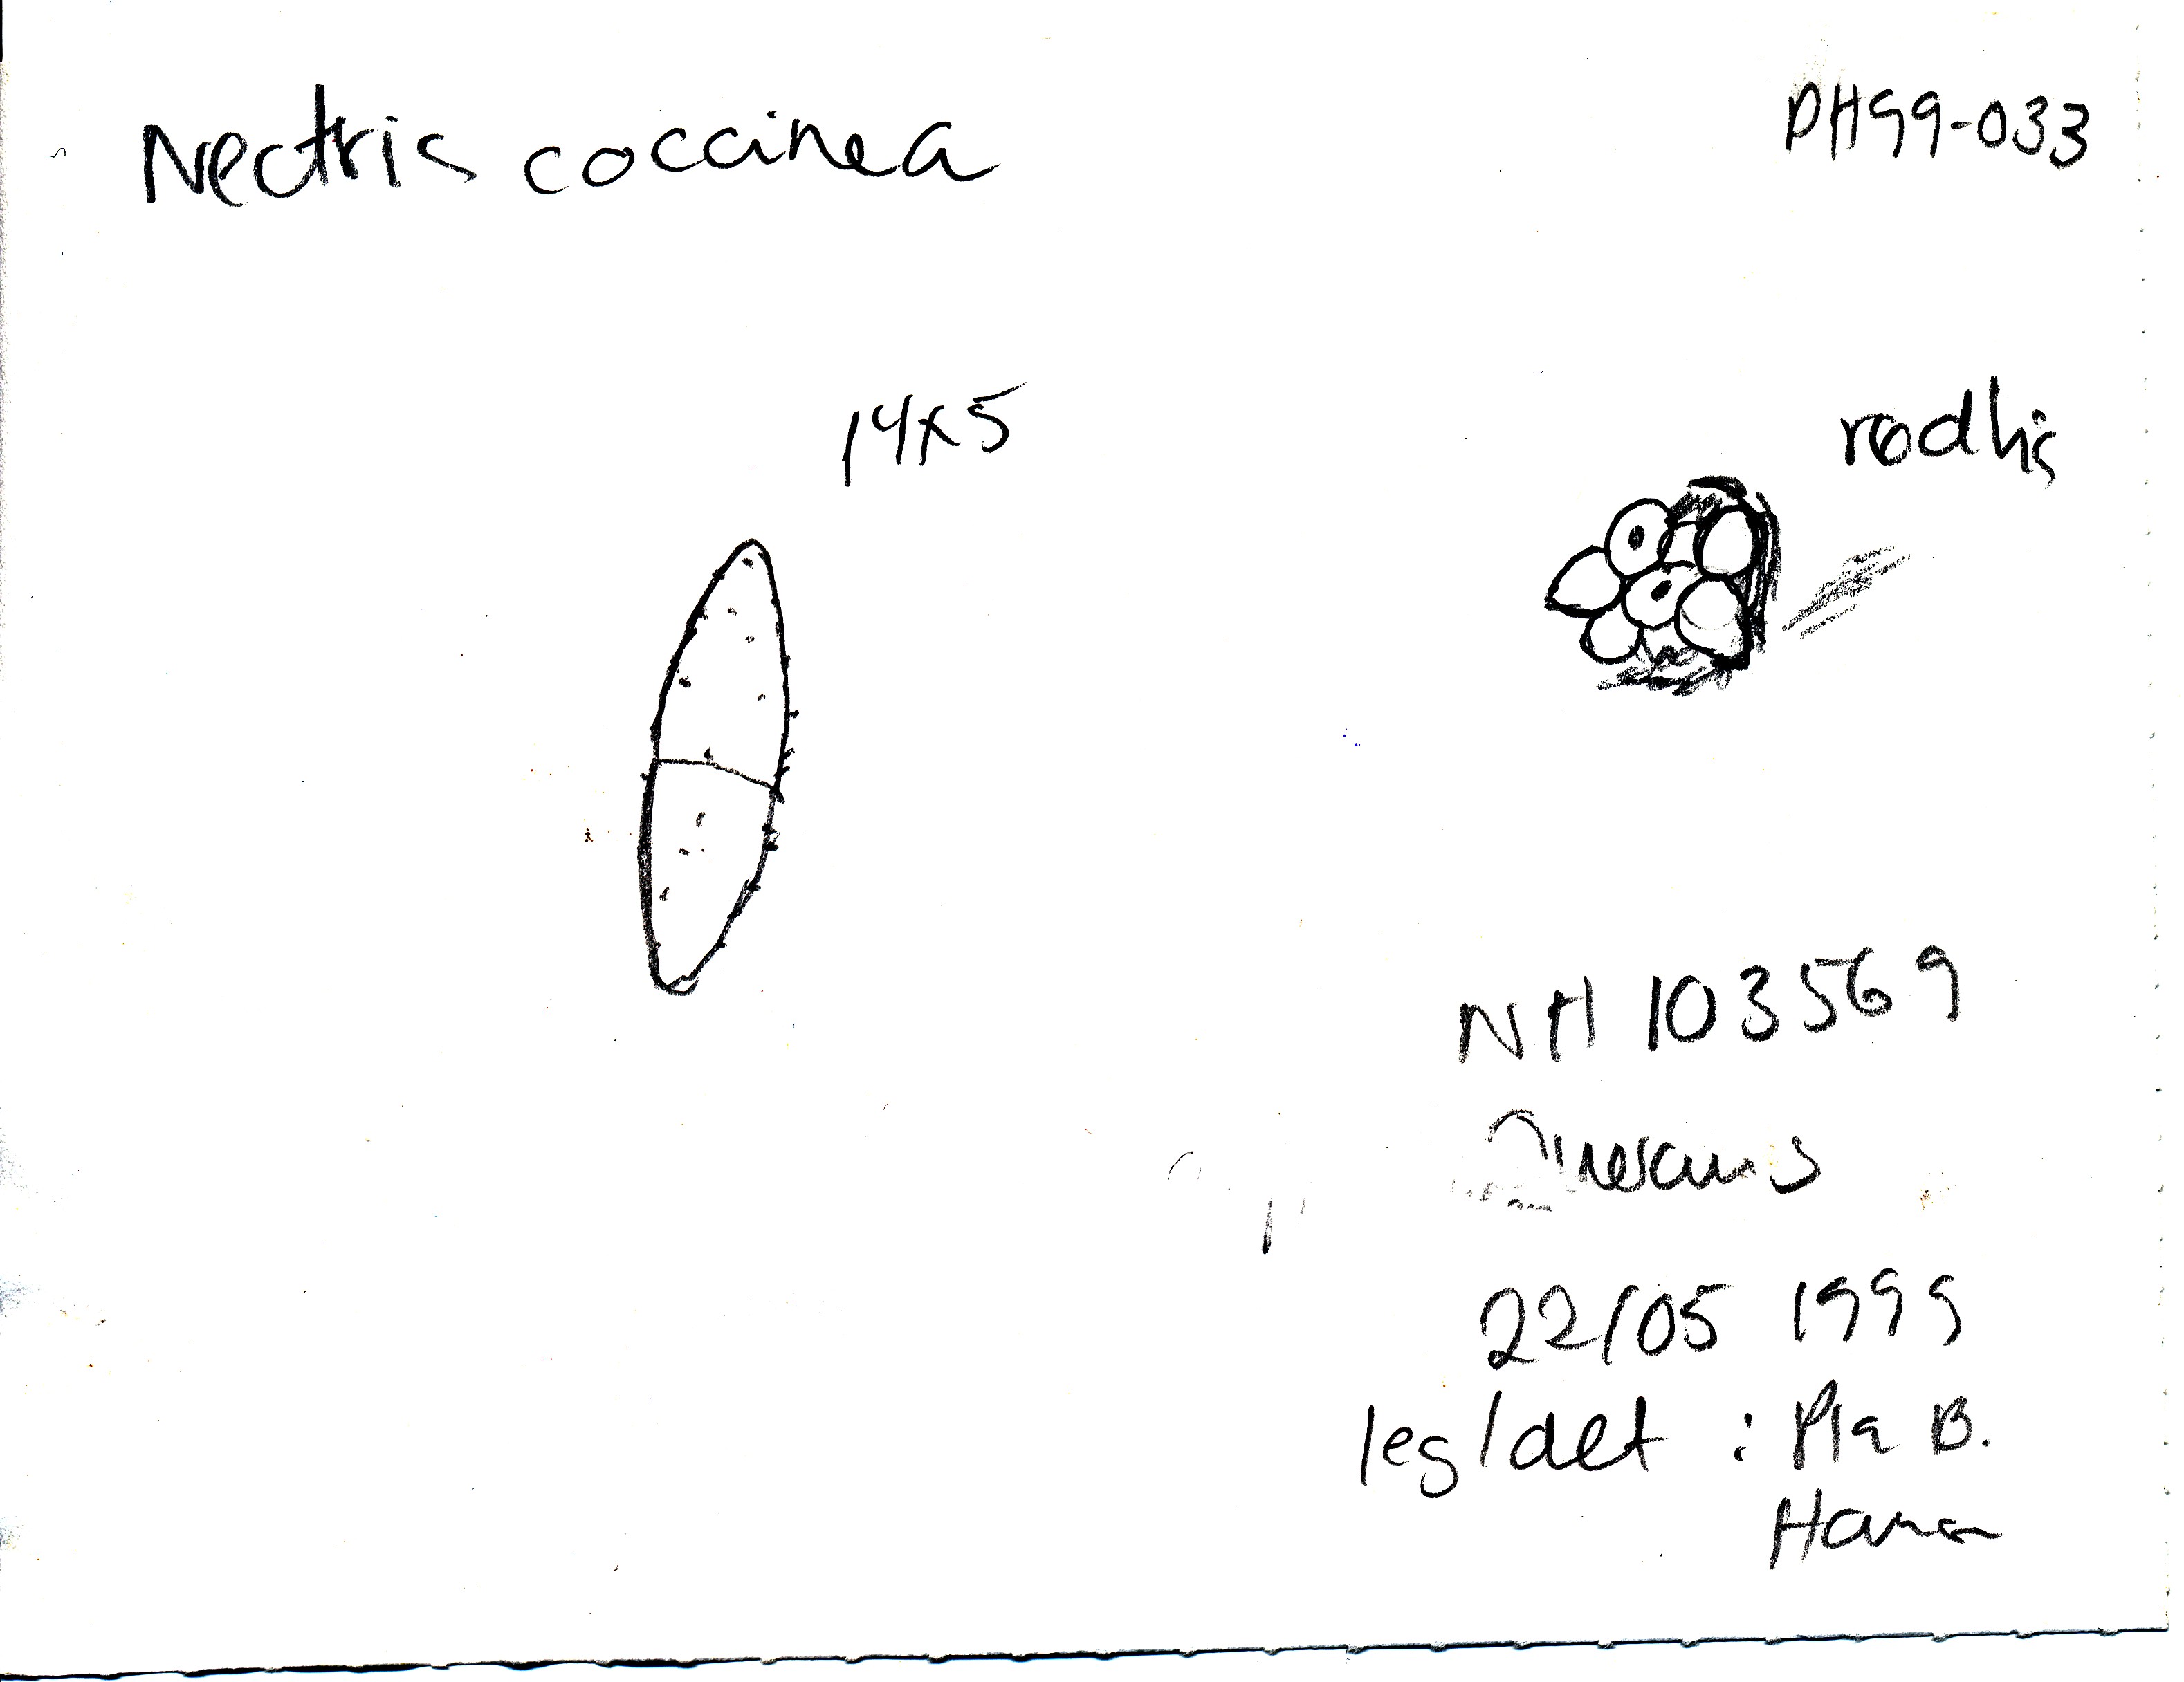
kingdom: Fungi
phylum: Ascomycota
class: Sordariomycetes
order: Hypocreales
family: Nectriaceae
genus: Neonectria
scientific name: Neonectria coccinea
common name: bøgebark-cinnobersvamp
